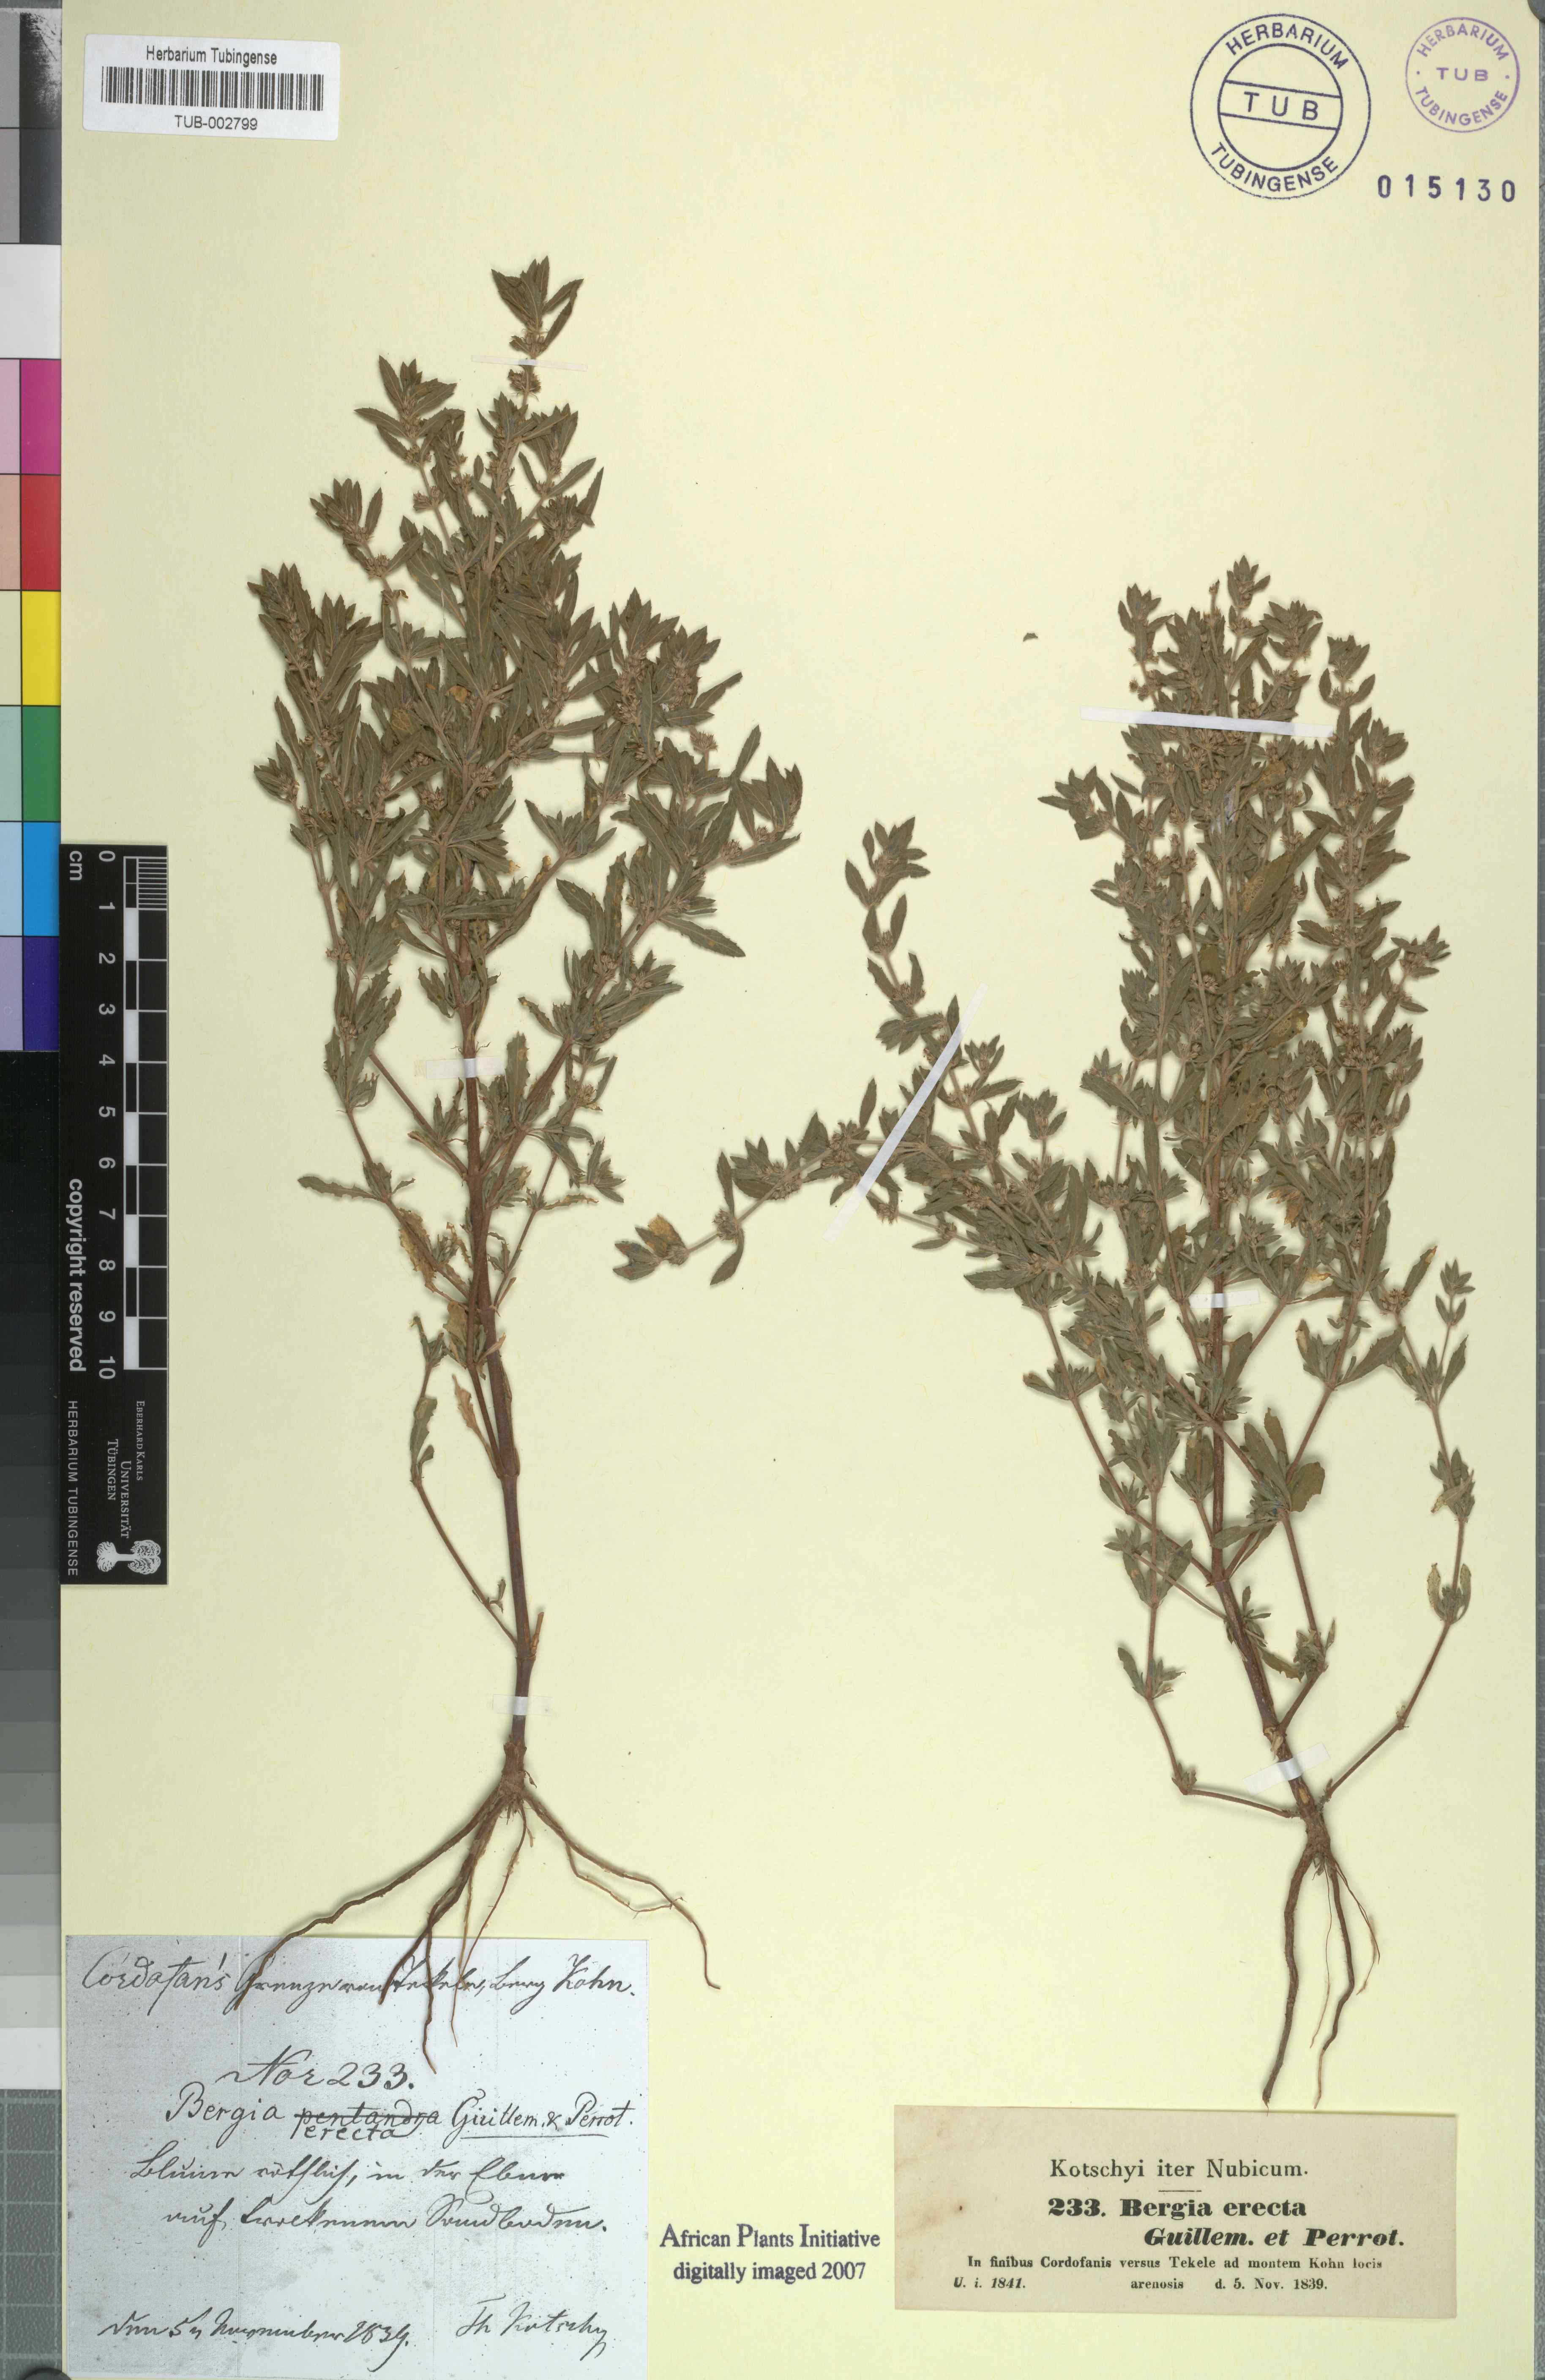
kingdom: Plantae
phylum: Tracheophyta
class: Magnoliopsida
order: Malpighiales
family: Elatinaceae
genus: Bergia
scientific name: Bergia erecta
